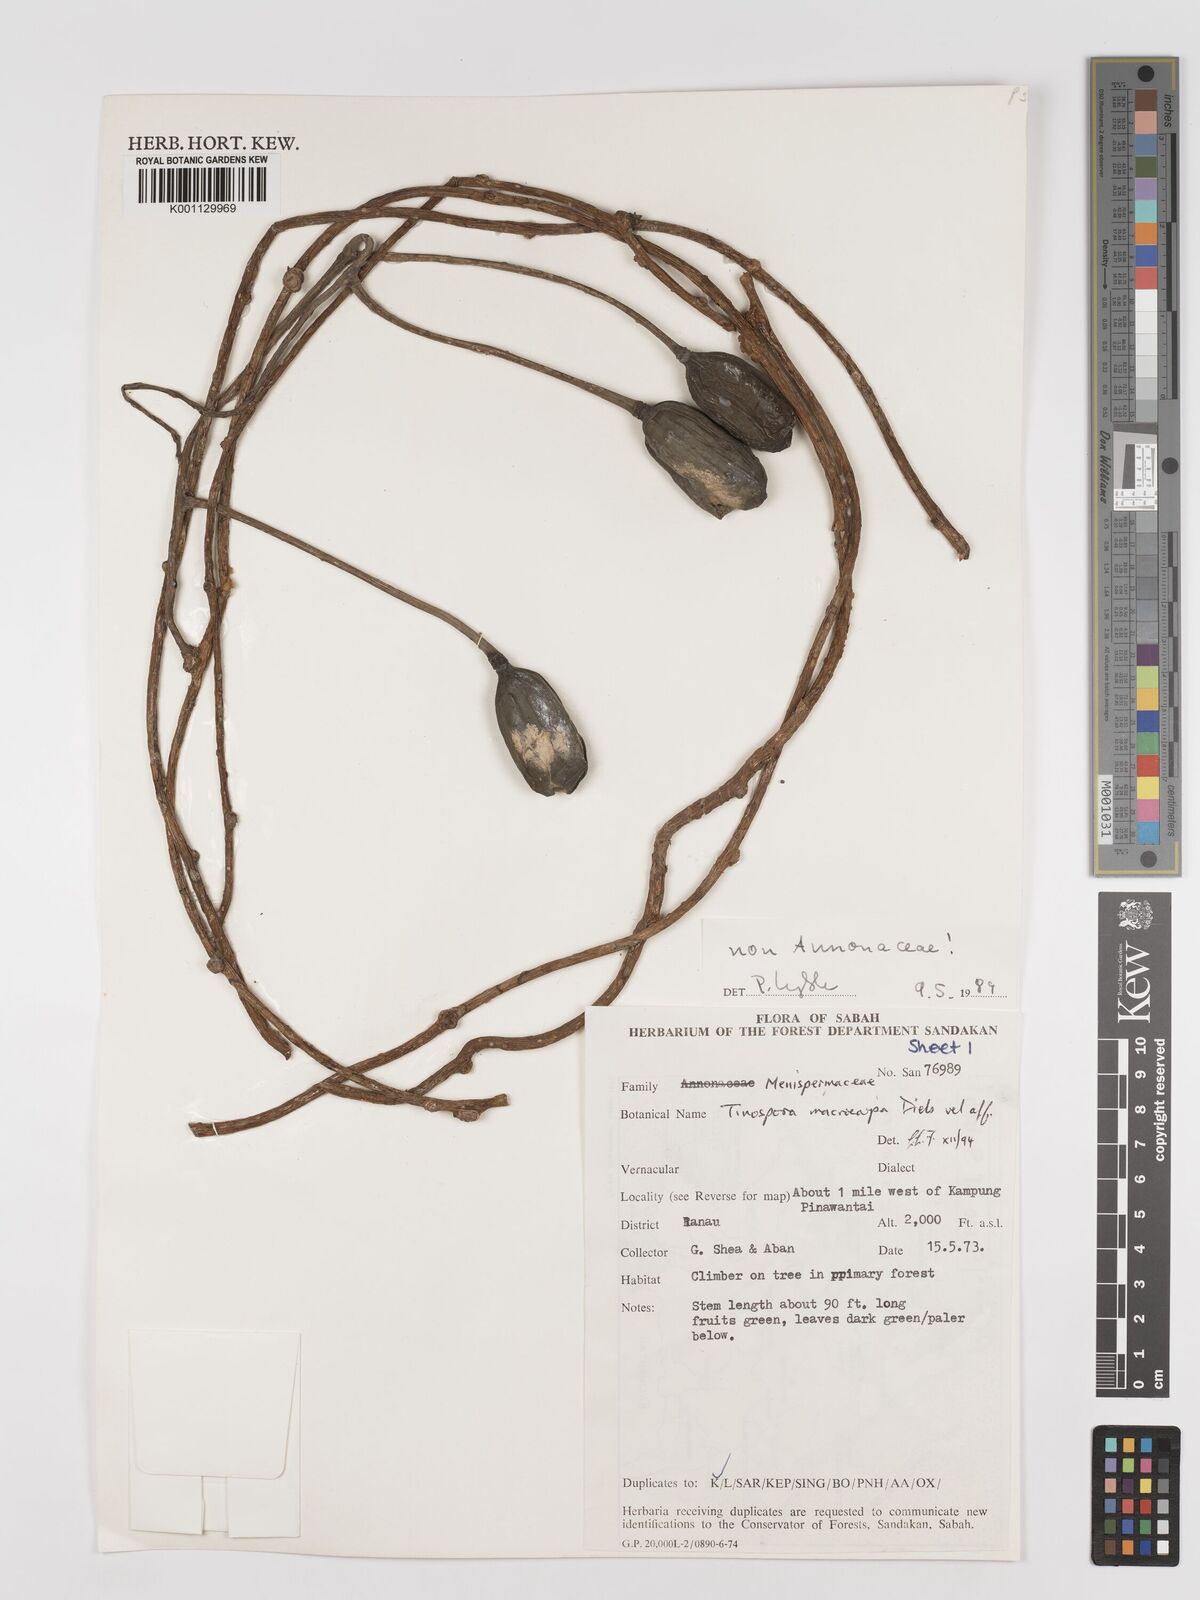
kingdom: Plantae
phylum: Tracheophyta
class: Magnoliopsida
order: Ranunculales
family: Menispermaceae
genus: Tinospora
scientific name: Tinospora macrocarpa
